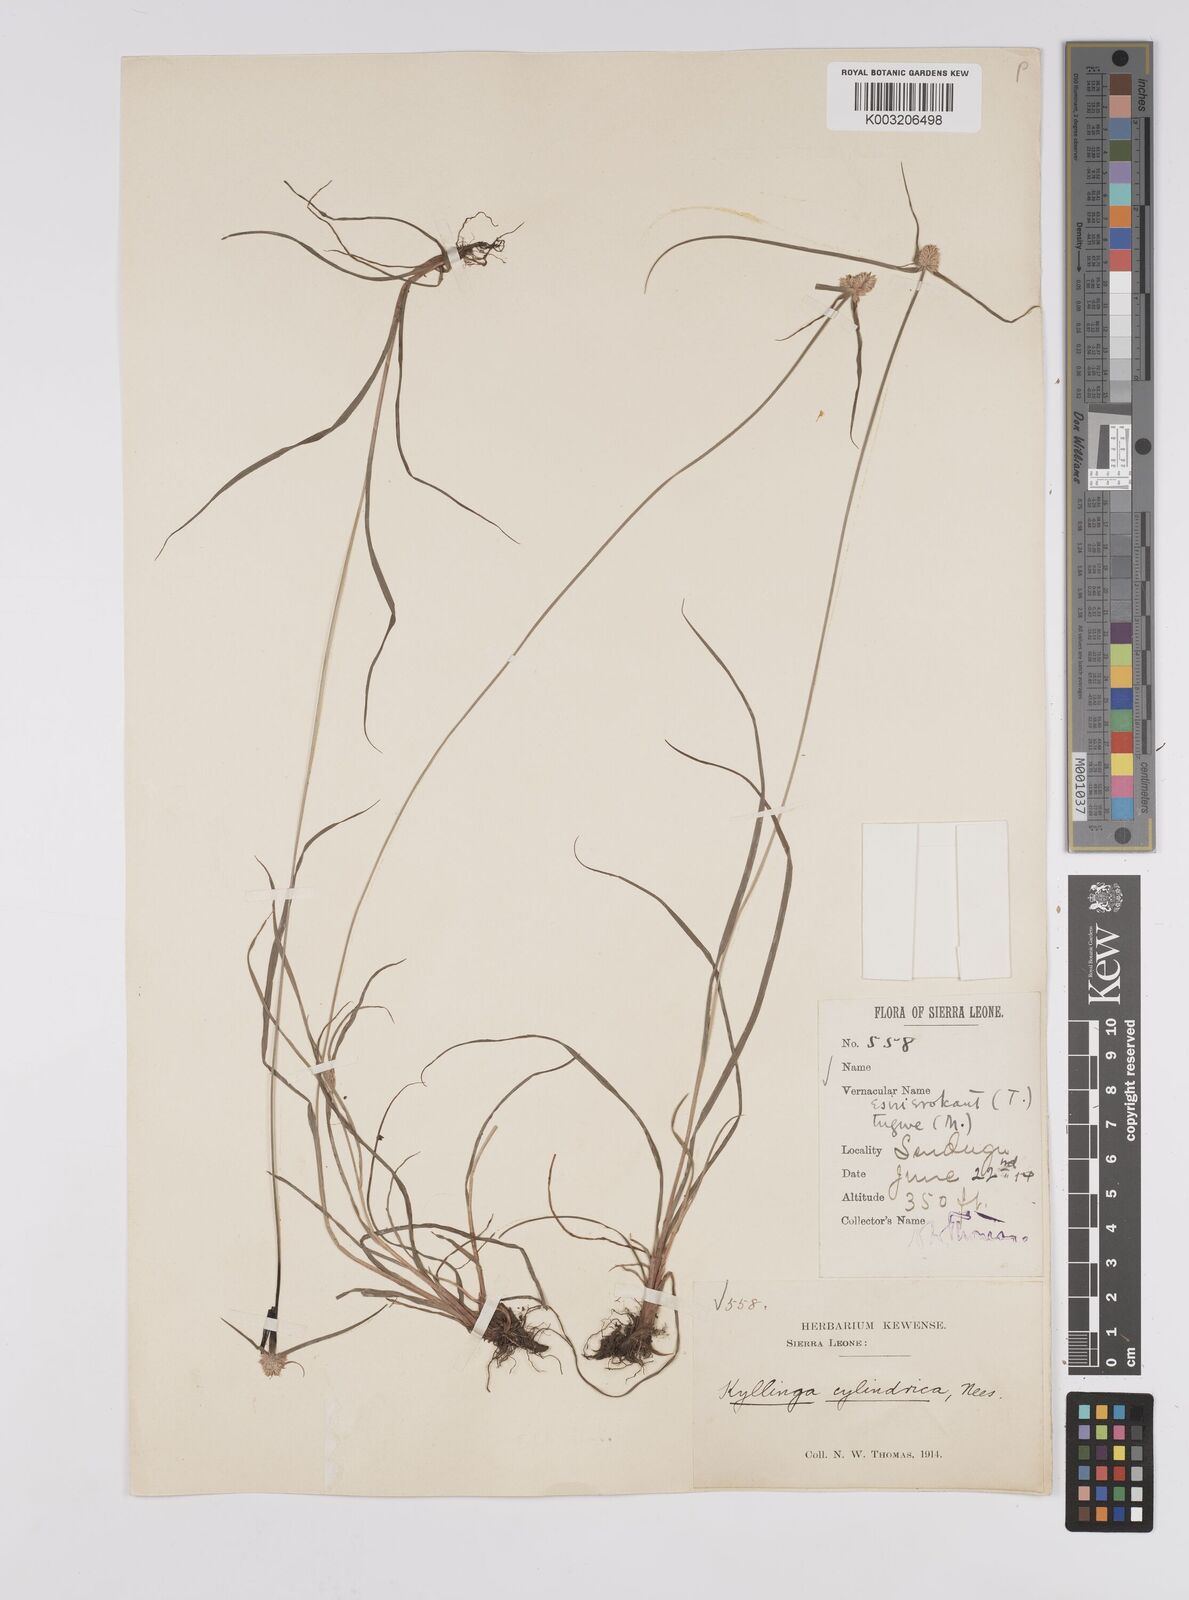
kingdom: Plantae
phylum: Tracheophyta
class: Liliopsida
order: Poales
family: Cyperaceae
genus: Cyperus
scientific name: Cyperus
